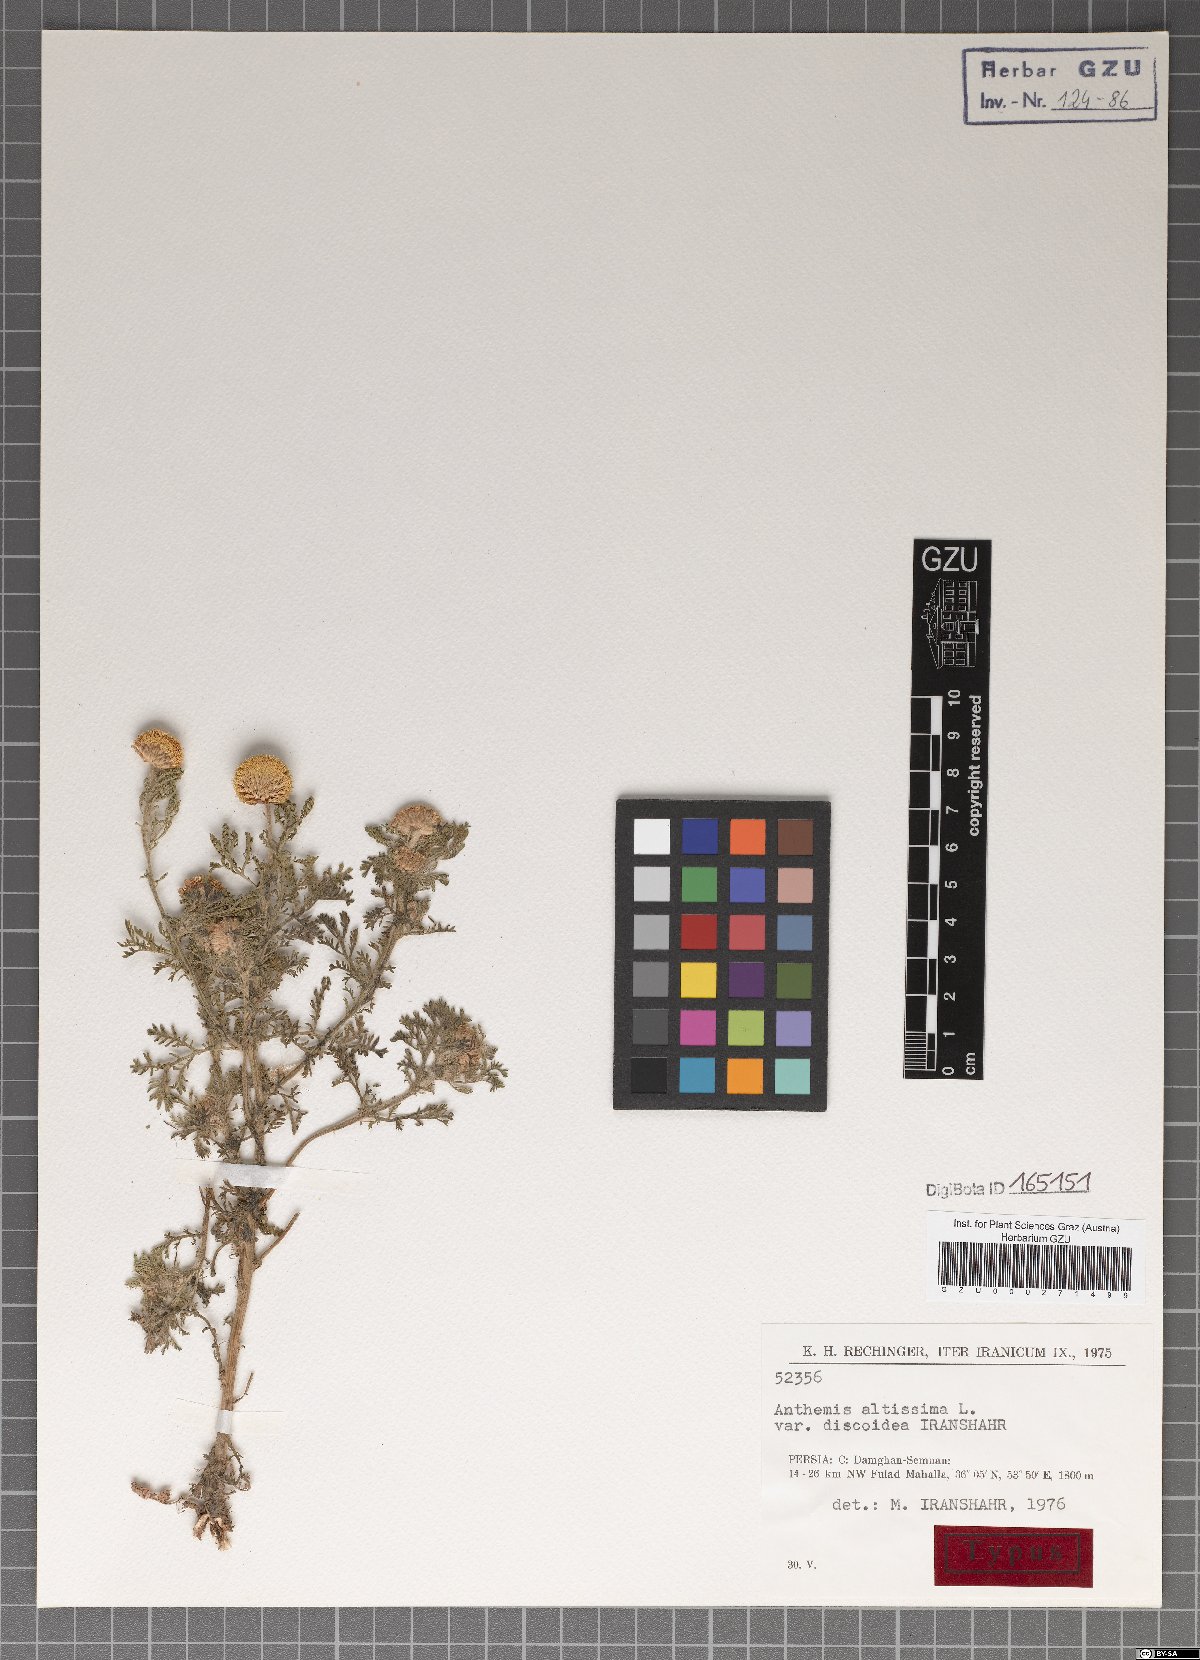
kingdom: Plantae
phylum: Tracheophyta
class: Magnoliopsida
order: Asterales
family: Asteraceae
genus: Cota
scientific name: Cota altissima
